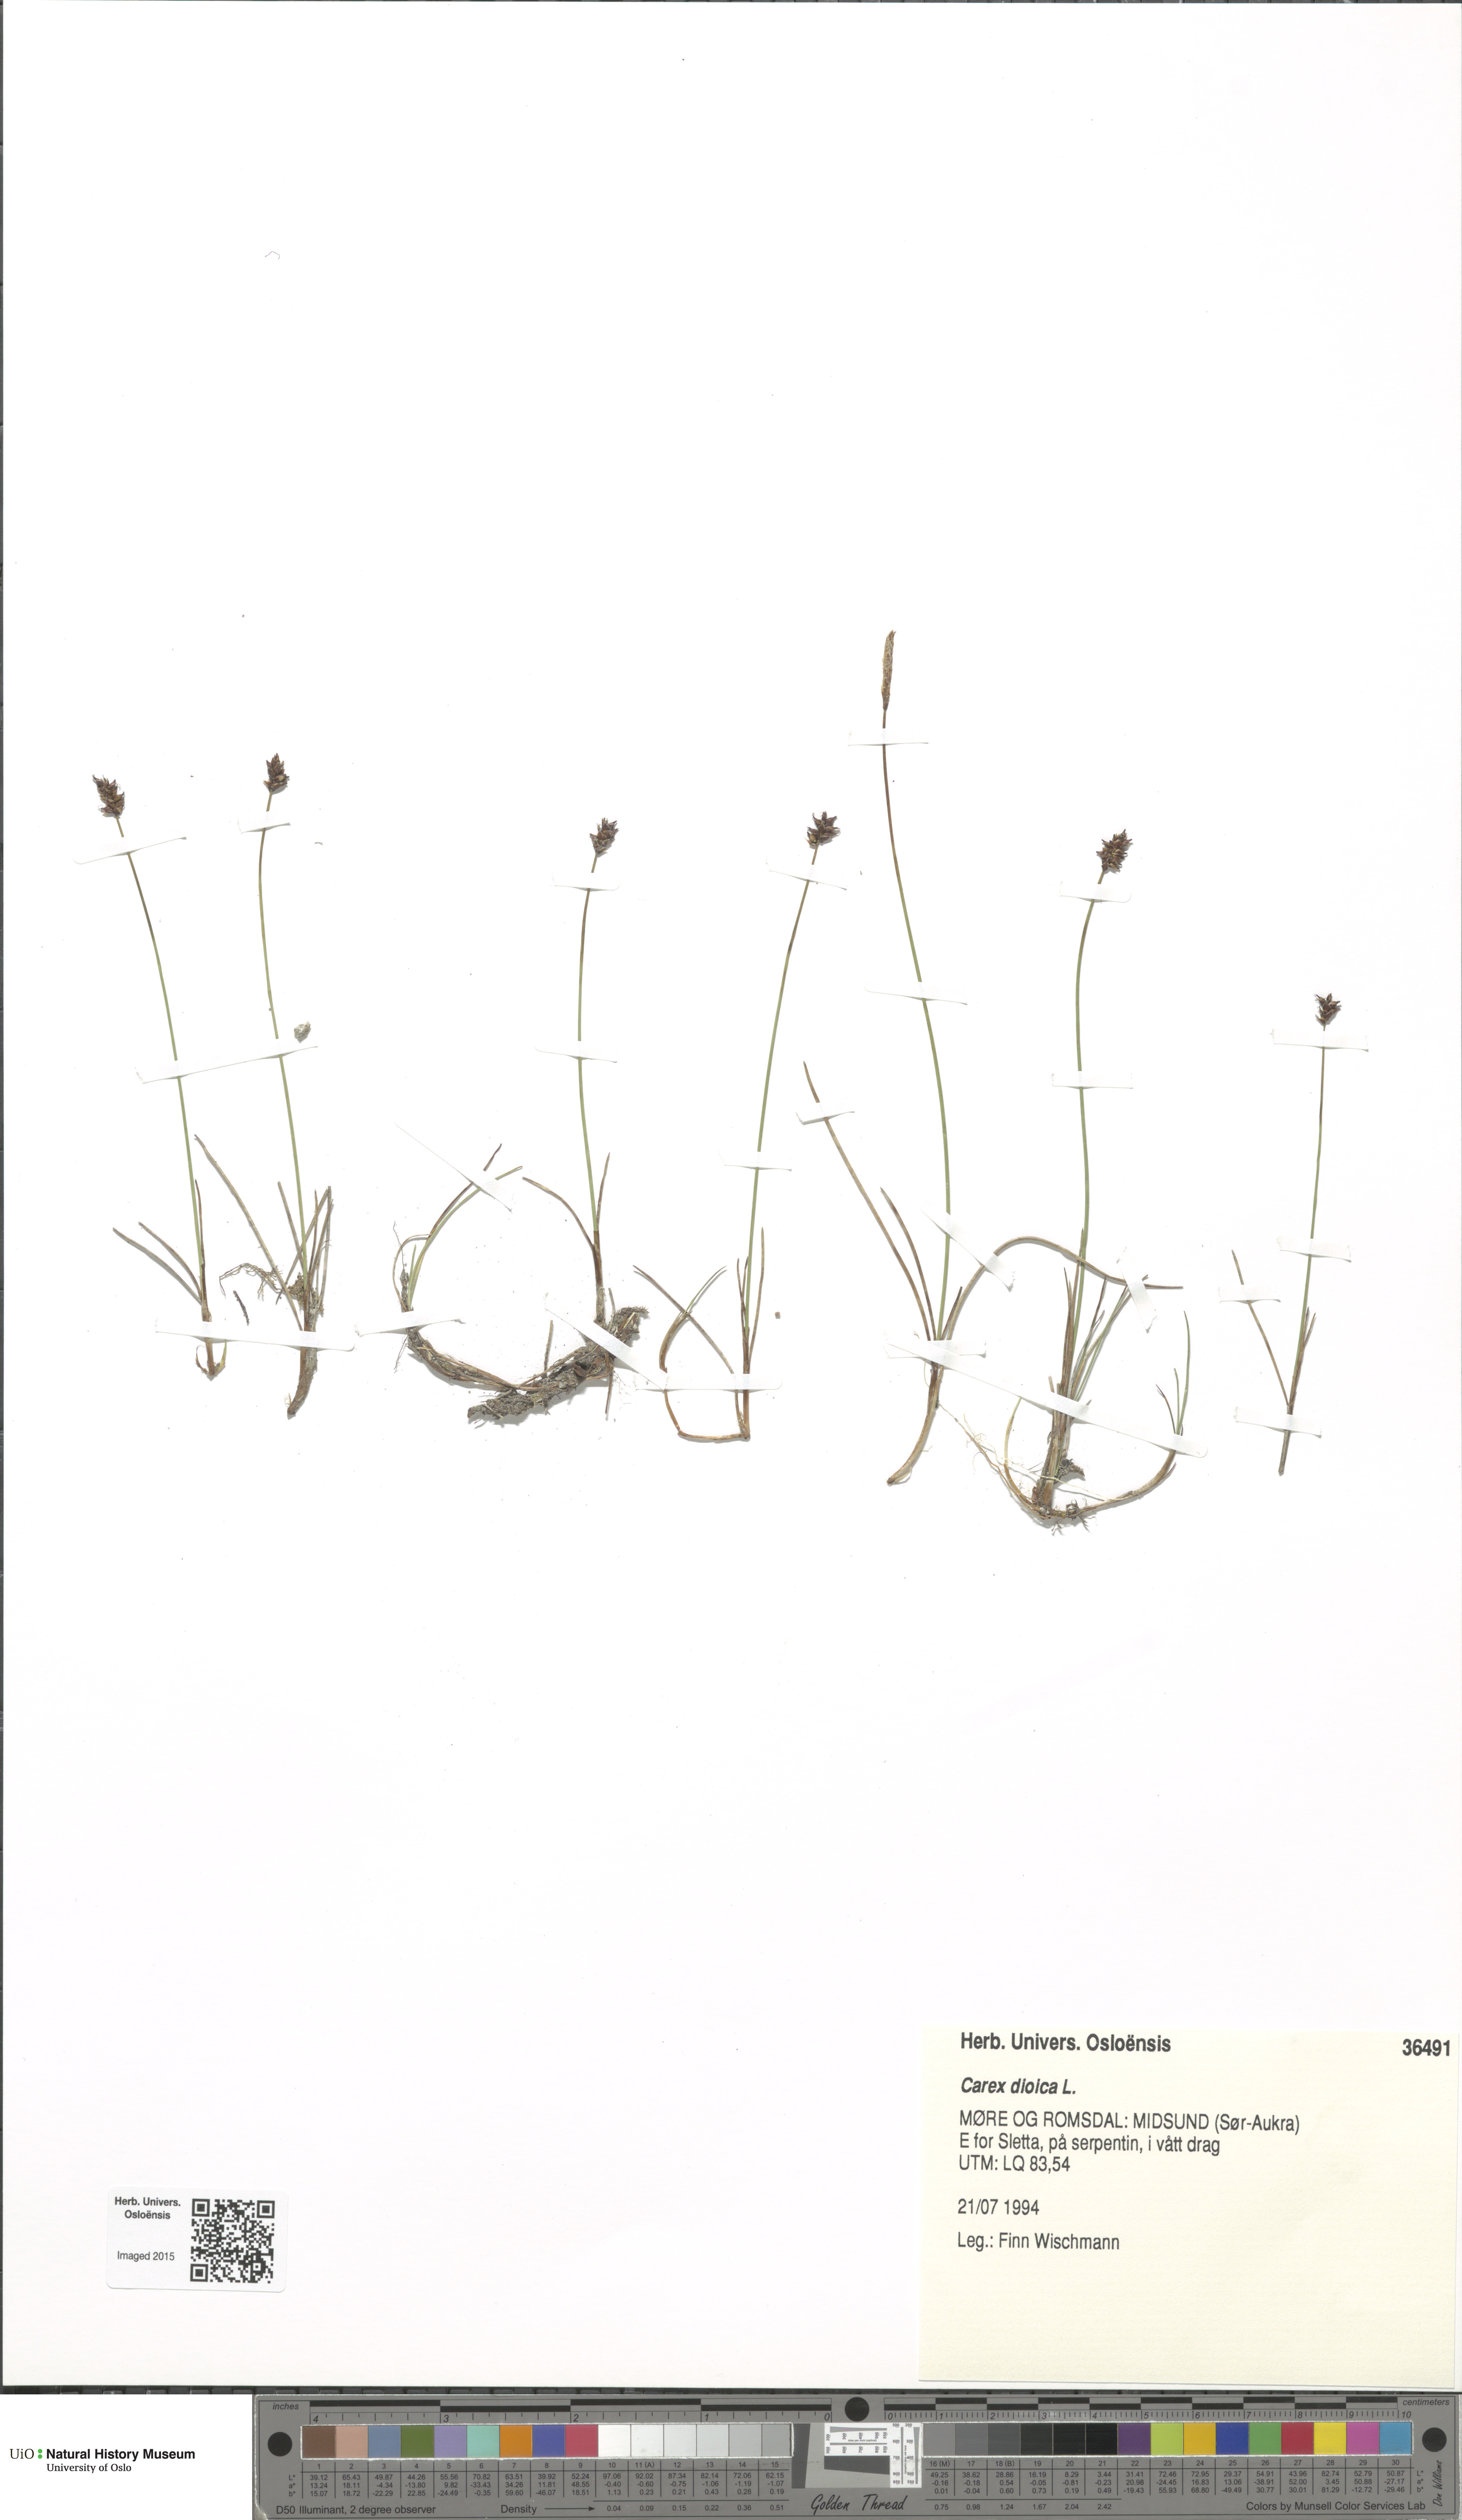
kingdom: Plantae
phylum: Tracheophyta
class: Liliopsida
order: Poales
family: Cyperaceae
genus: Carex
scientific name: Carex dioica
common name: Dioecious sedge
